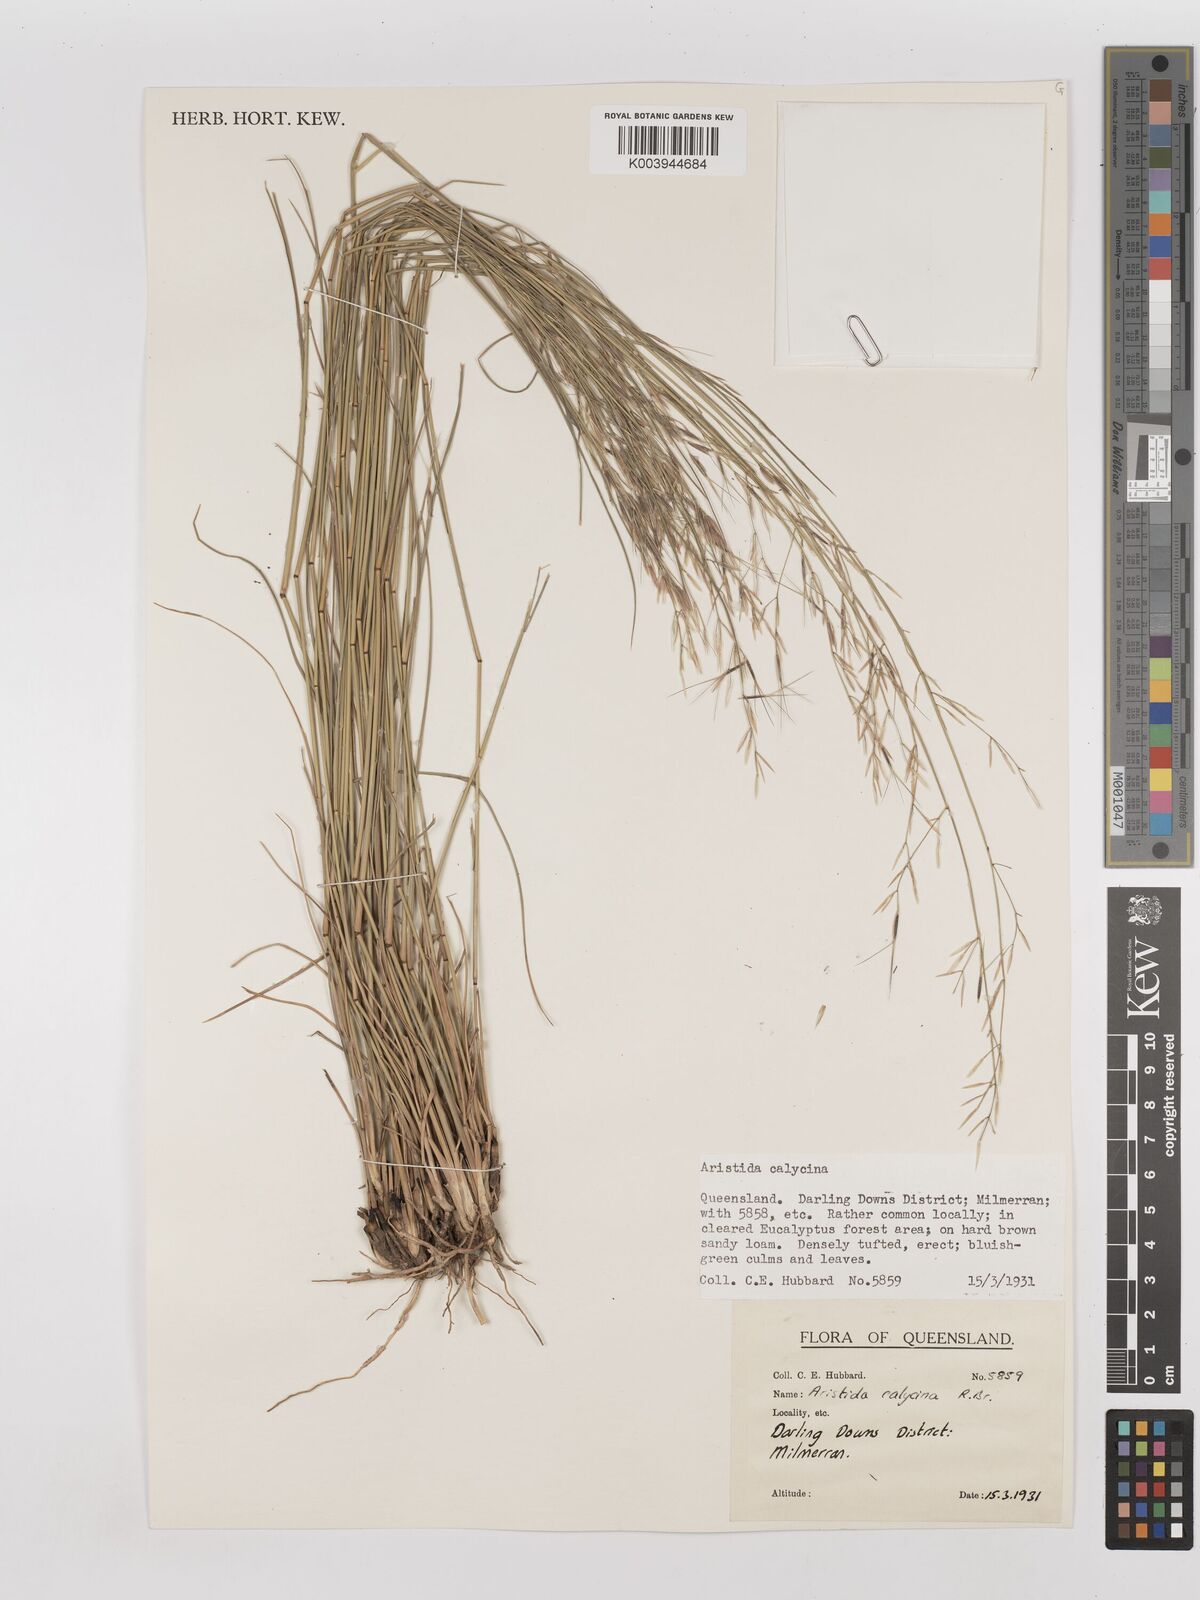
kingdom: Plantae
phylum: Tracheophyta
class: Liliopsida
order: Poales
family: Poaceae
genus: Aristida
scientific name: Aristida calycina
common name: Dark wire grass
